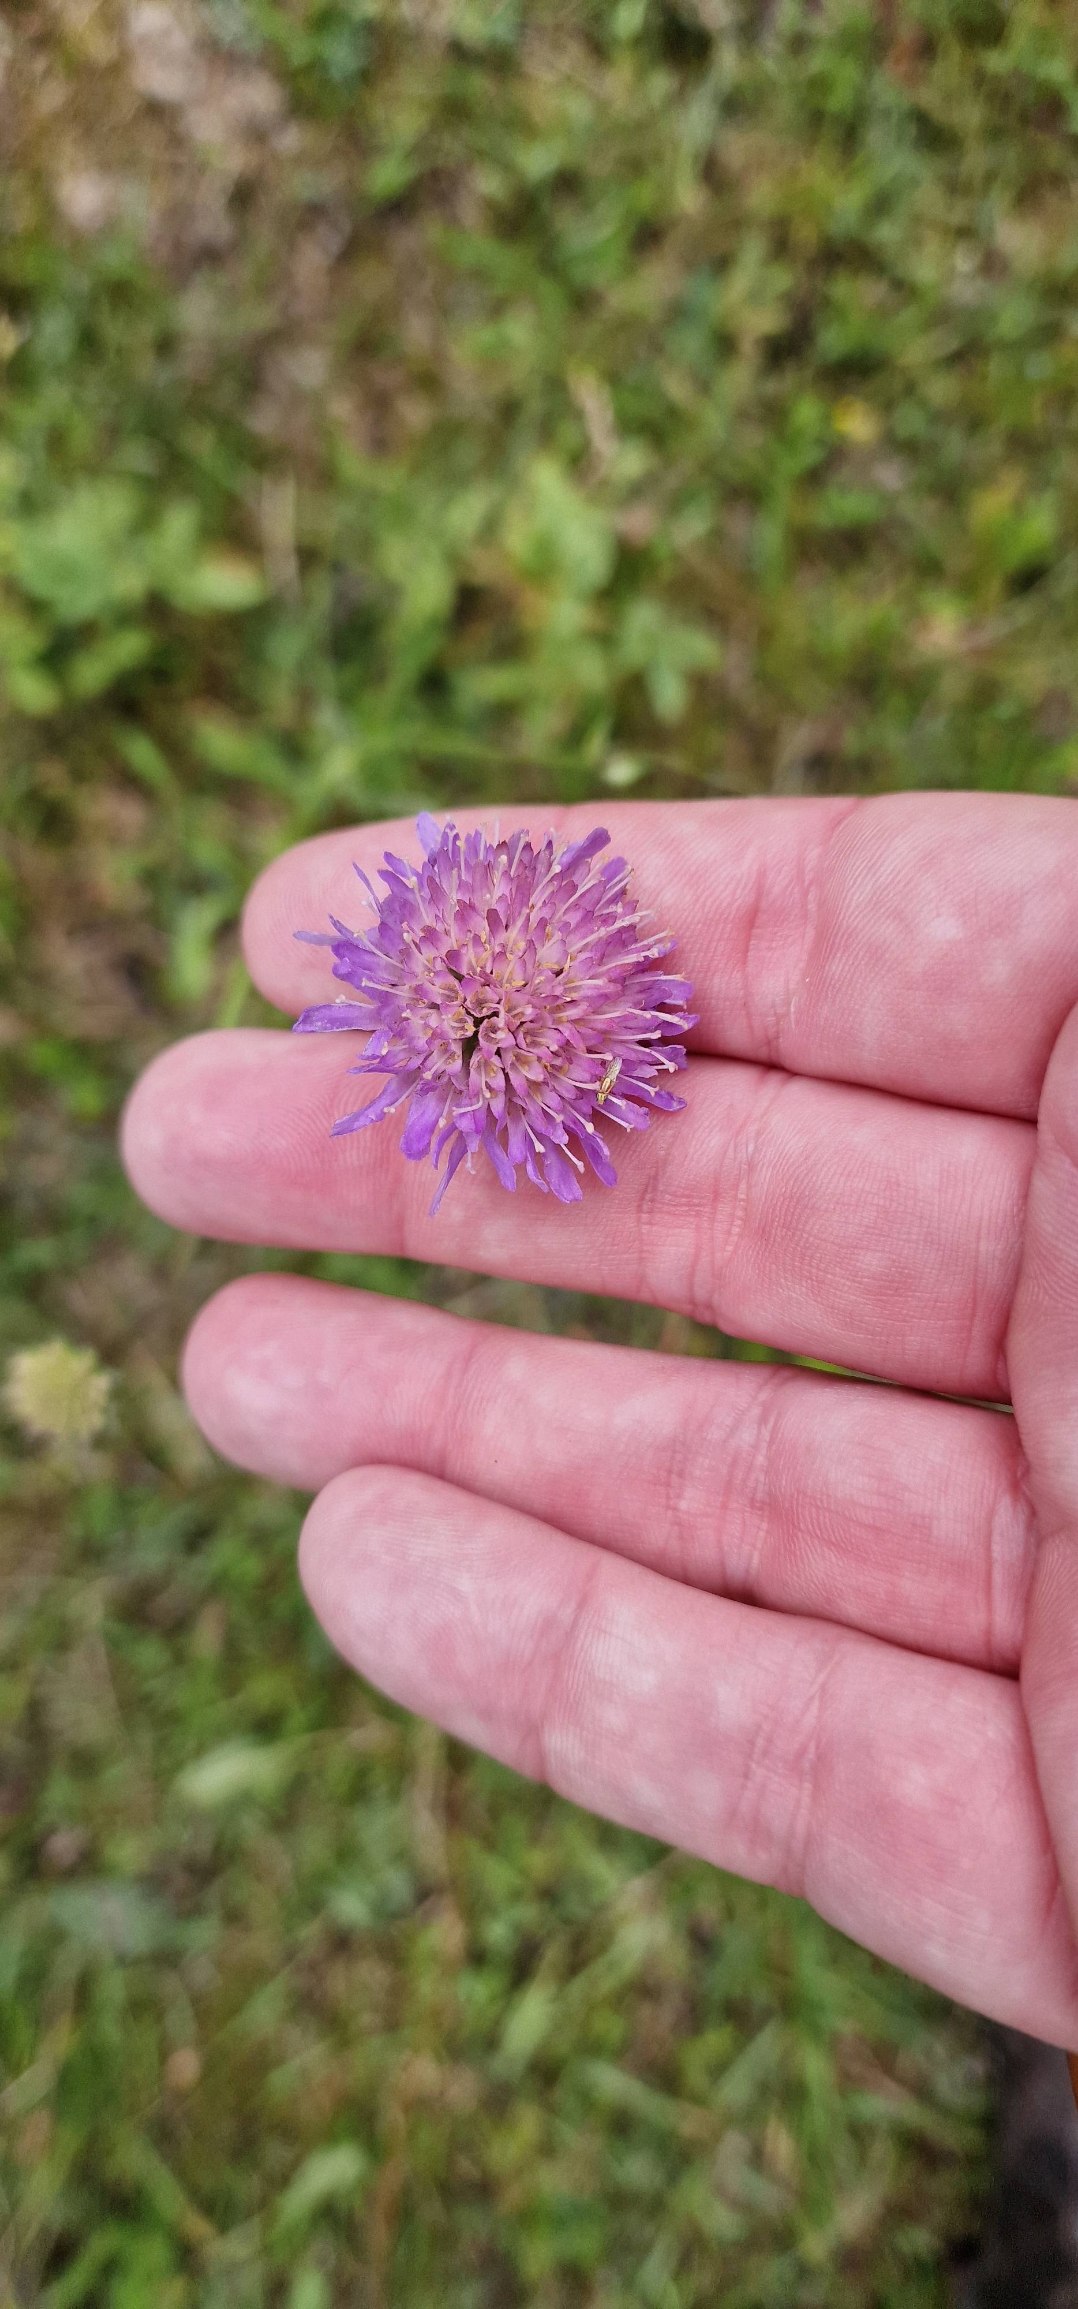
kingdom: Plantae
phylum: Tracheophyta
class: Magnoliopsida
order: Dipsacales
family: Caprifoliaceae
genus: Knautia
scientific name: Knautia arvensis
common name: Blåhat
